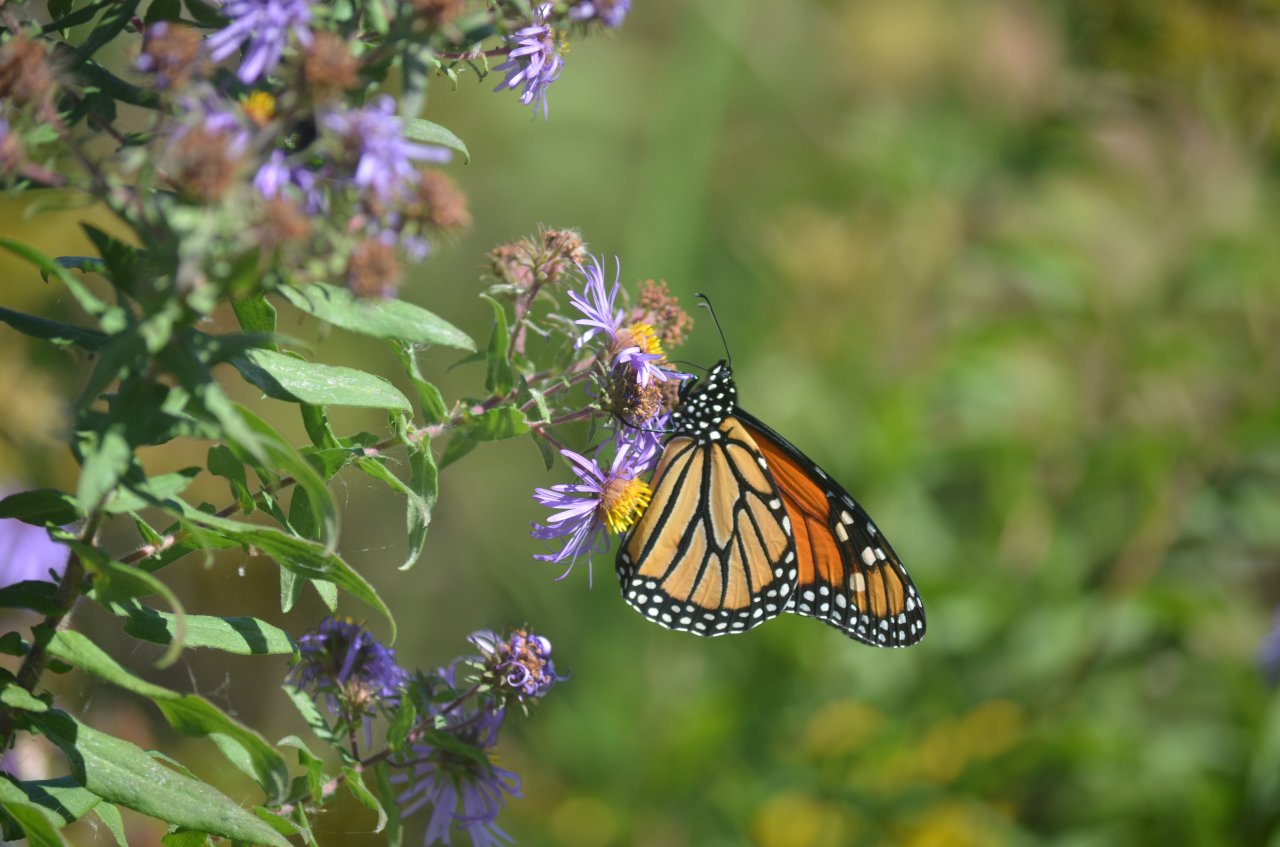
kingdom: Animalia
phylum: Arthropoda
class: Insecta
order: Lepidoptera
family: Nymphalidae
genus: Danaus
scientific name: Danaus plexippus
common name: Monarch
